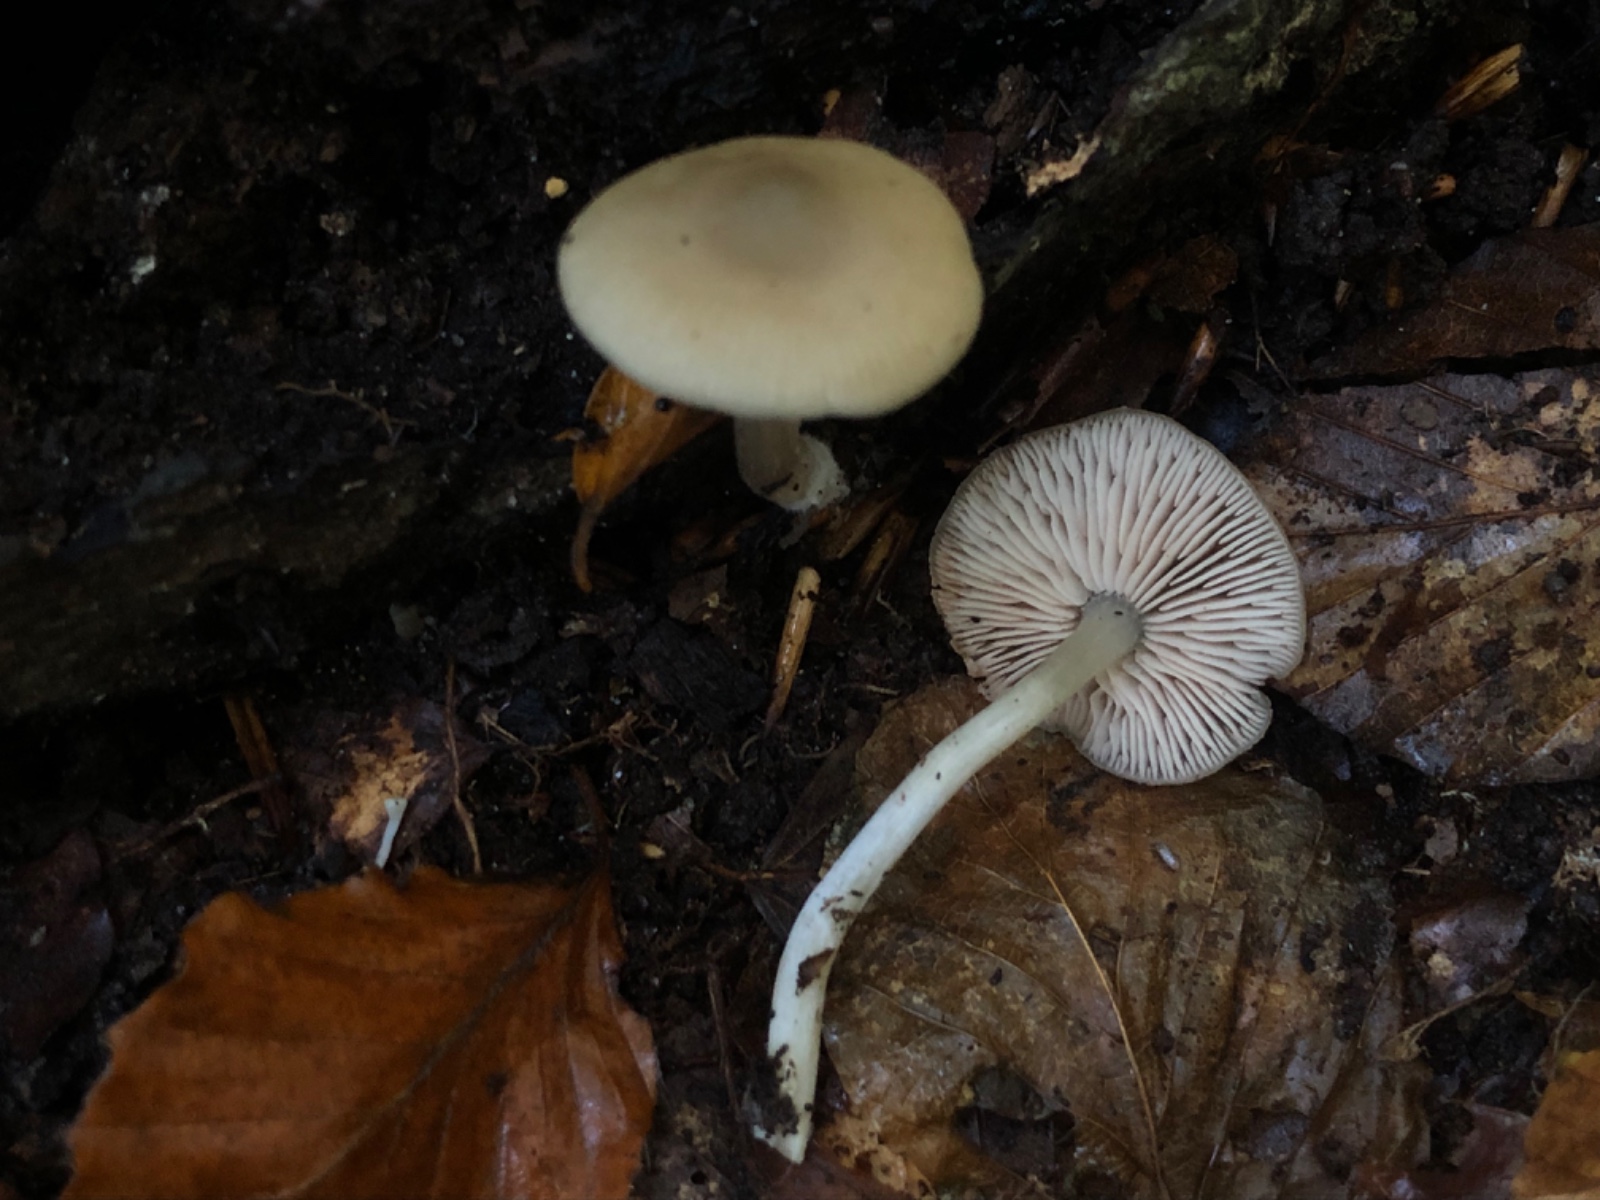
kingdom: Fungi
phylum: Basidiomycota
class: Agaricomycetes
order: Agaricales
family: Entolomataceae
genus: Entoloma
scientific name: Entoloma
